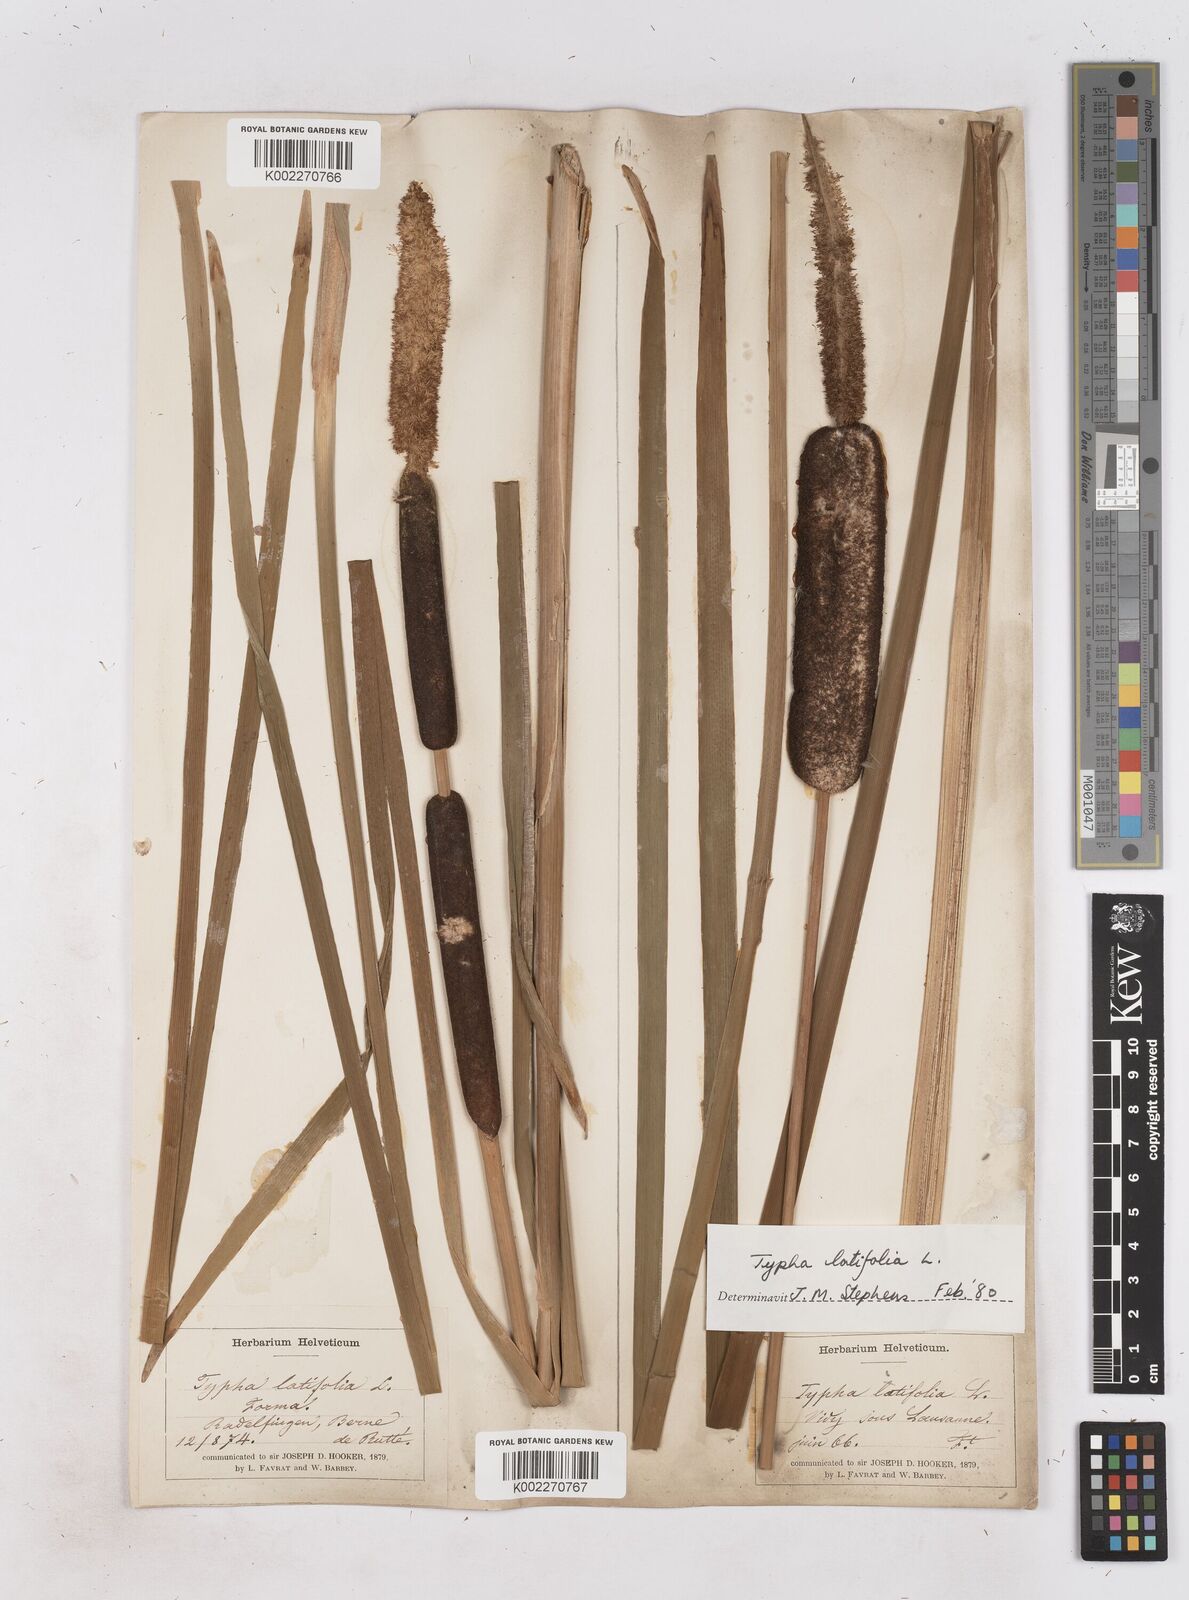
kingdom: Plantae
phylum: Tracheophyta
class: Liliopsida
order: Poales
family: Typhaceae
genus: Typha
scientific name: Typha latifolia
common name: Broadleaf cattail
